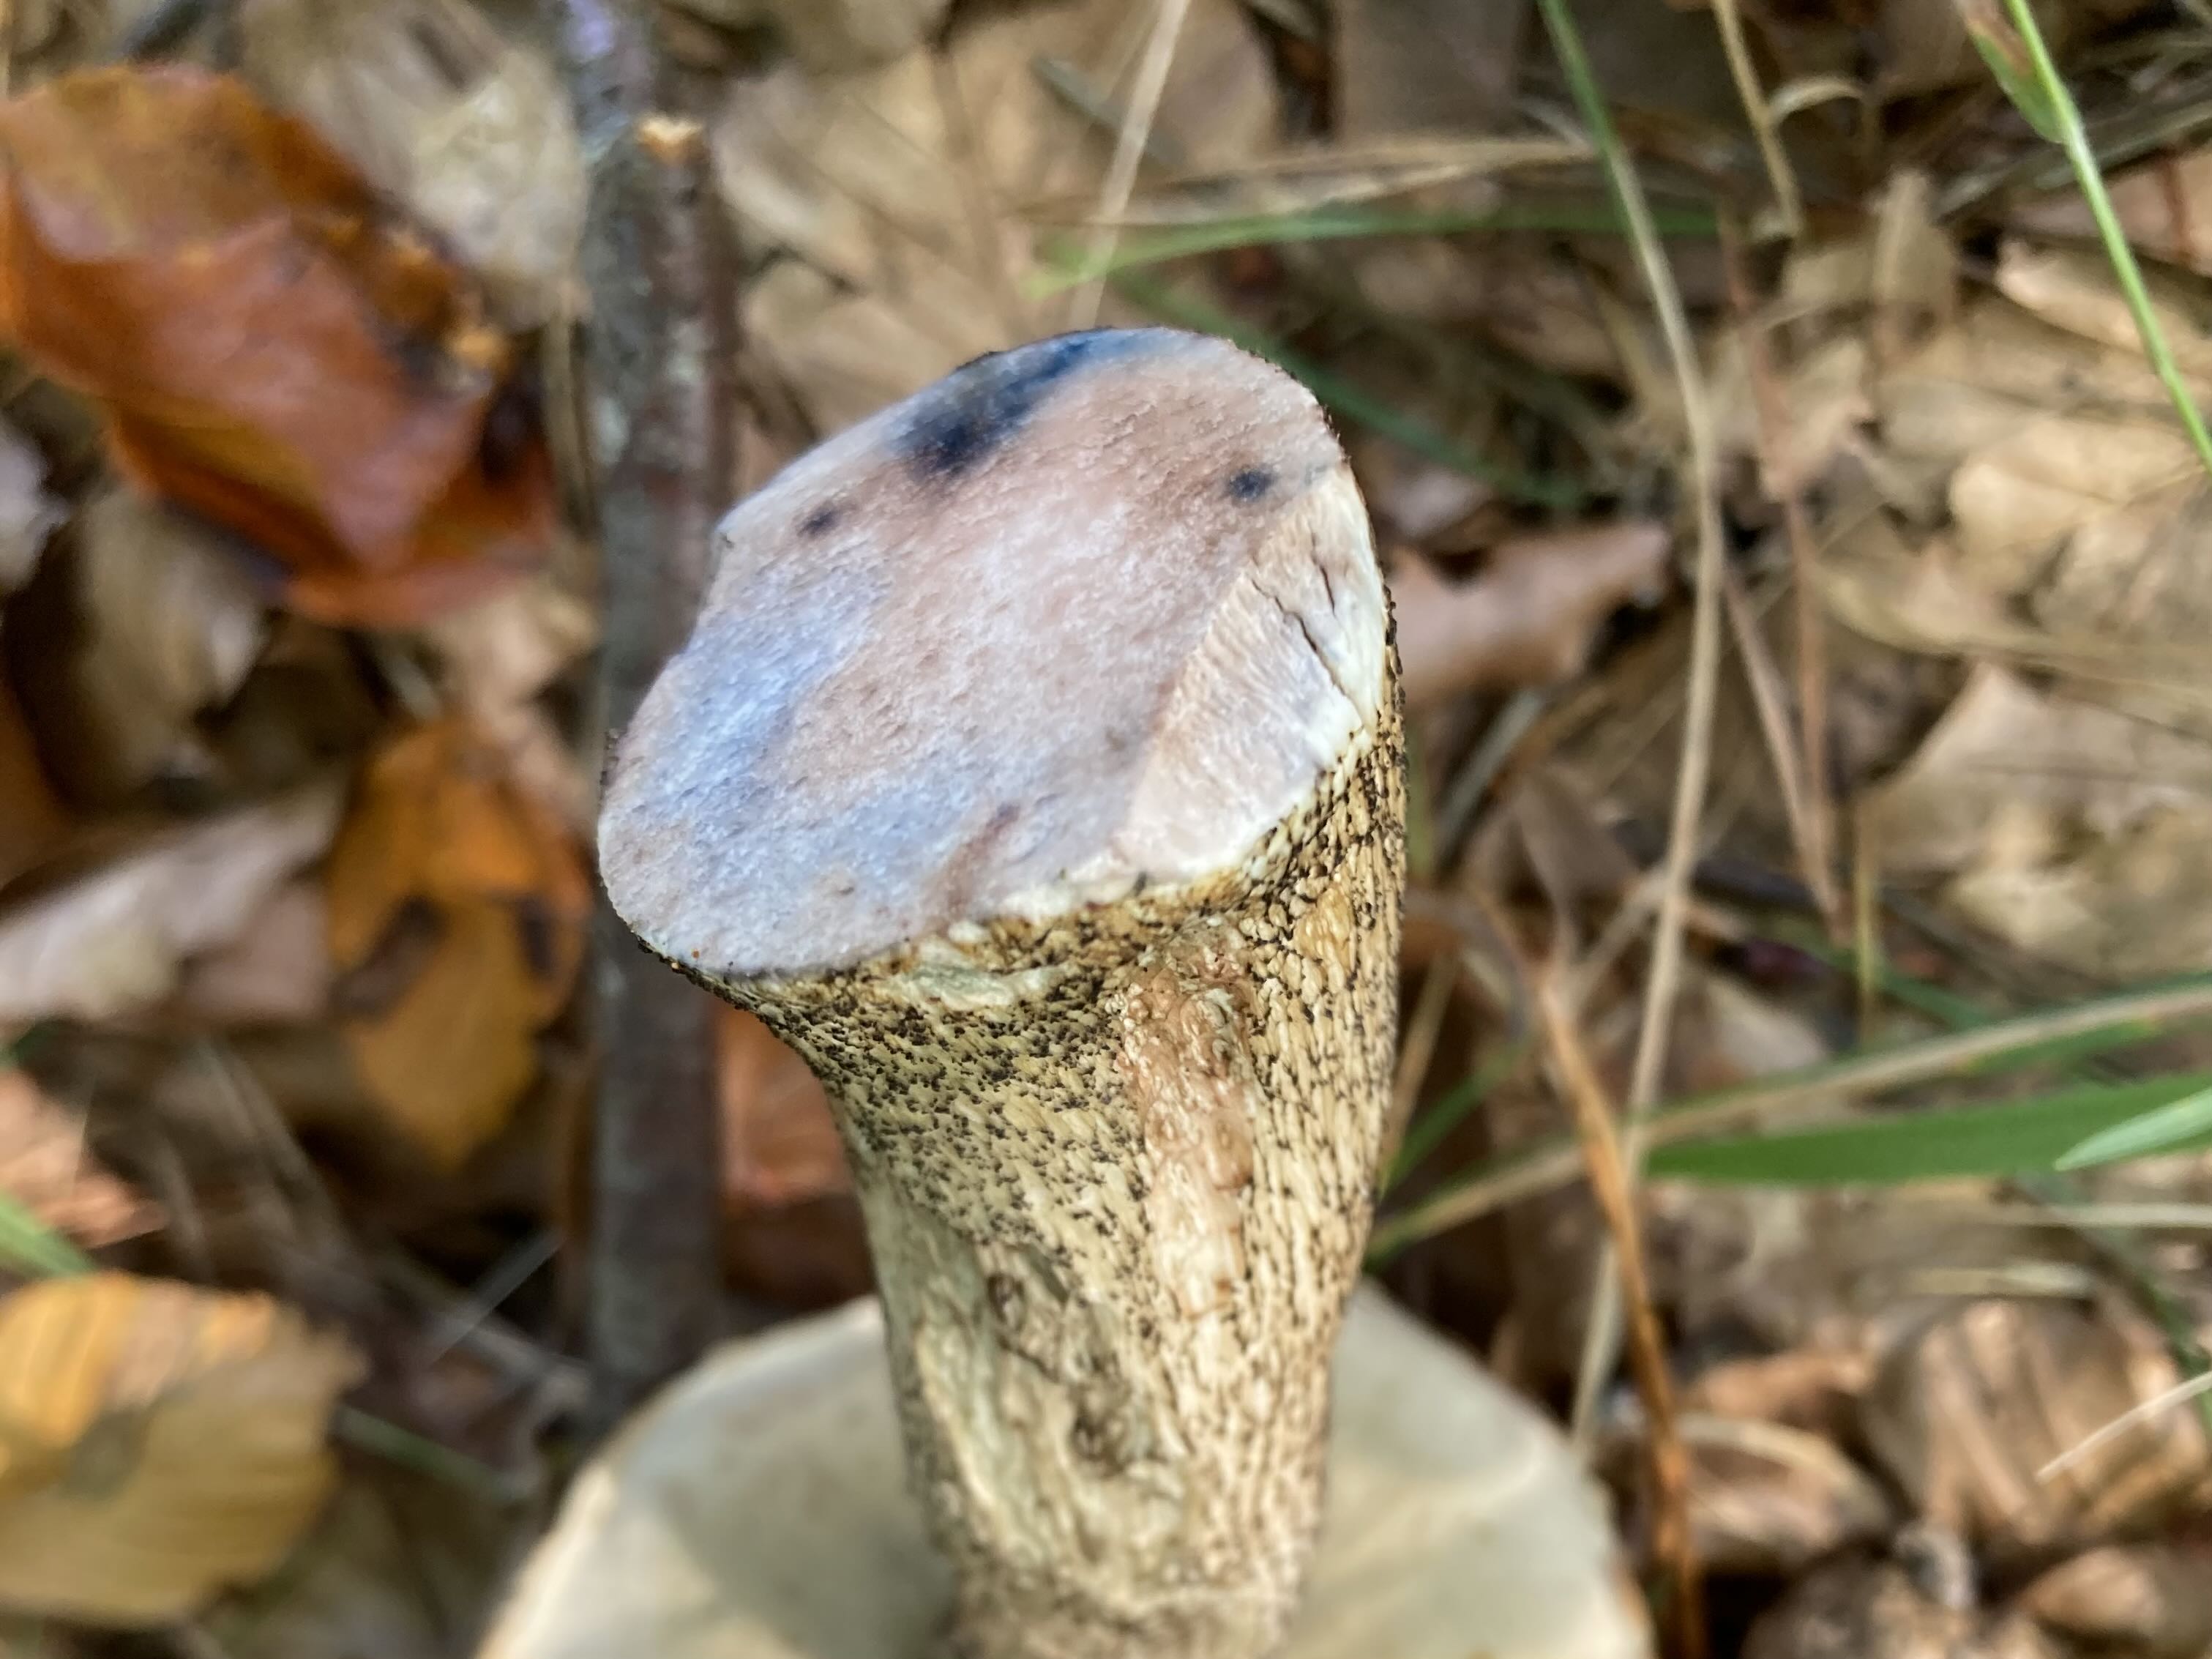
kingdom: Fungi
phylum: Basidiomycota
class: Agaricomycetes
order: Boletales
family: Boletaceae
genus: Leccinum
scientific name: Leccinum versipelle
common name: orange skælrørhat
